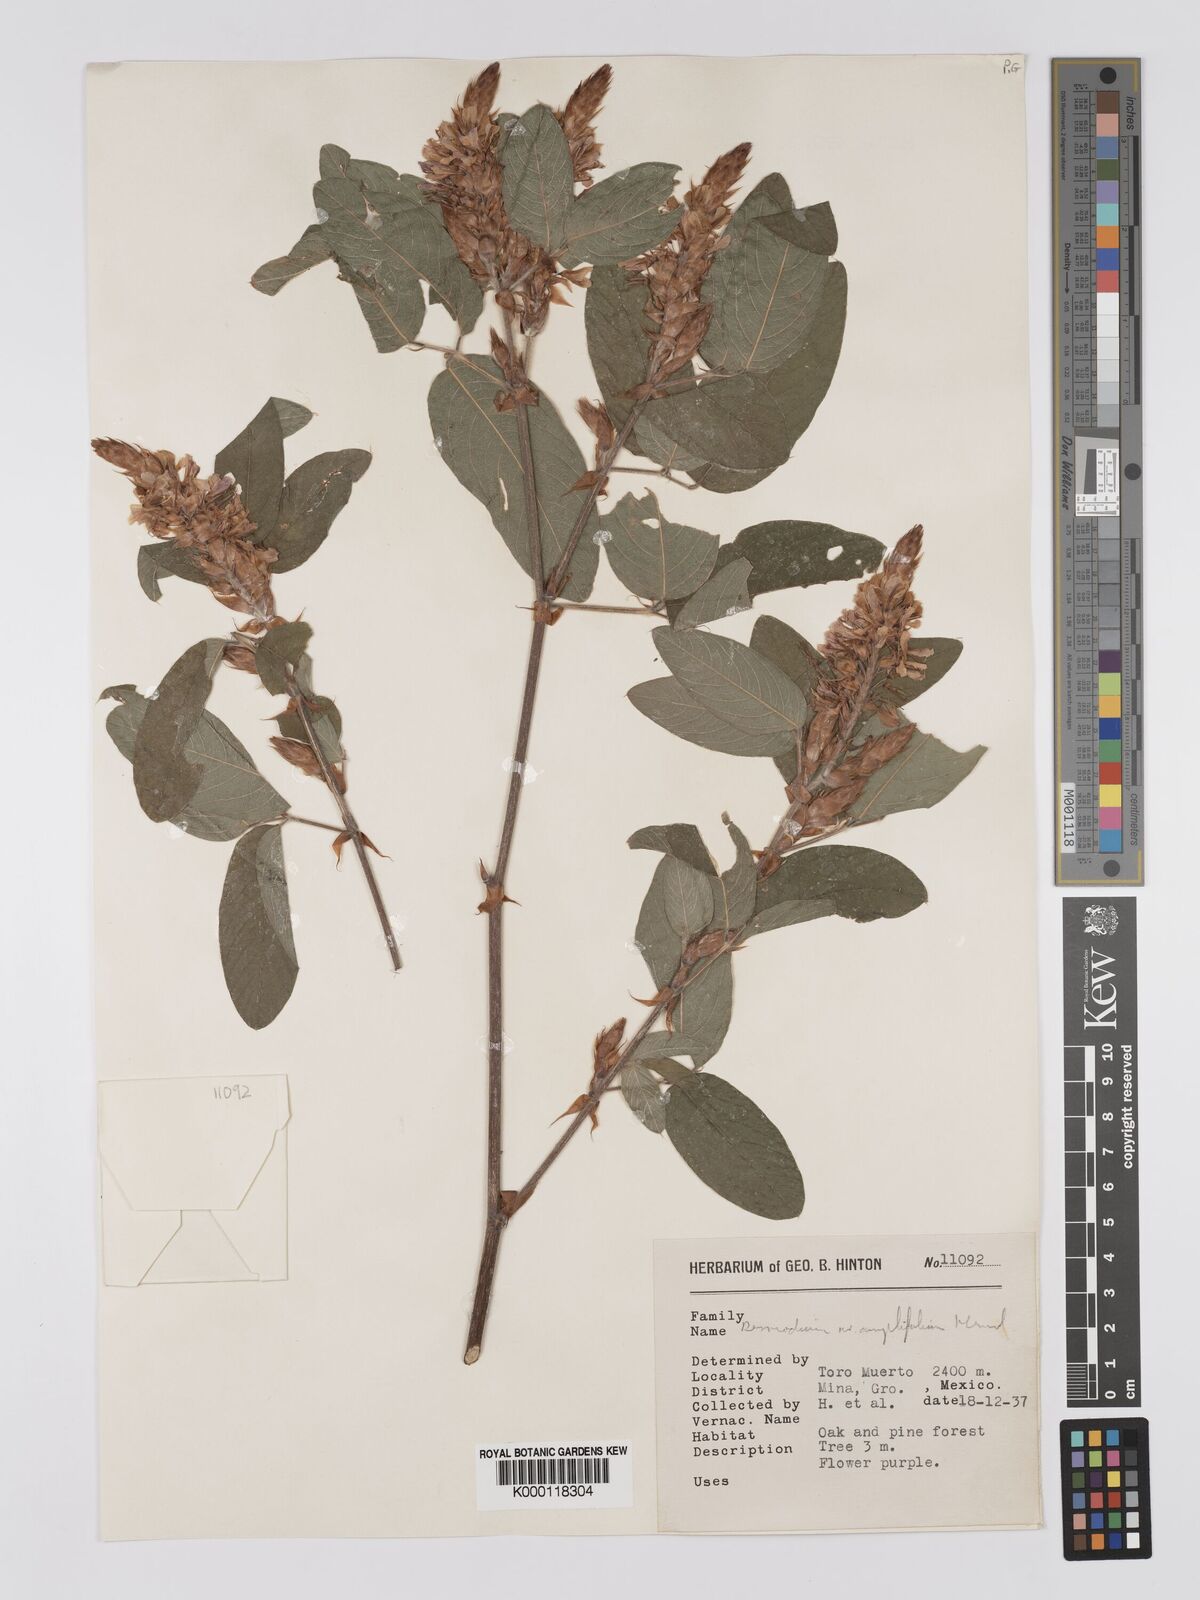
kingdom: Plantae
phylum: Tracheophyta
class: Magnoliopsida
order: Fabales
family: Fabaceae
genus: Desmodium
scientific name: Desmodium amplifolium
